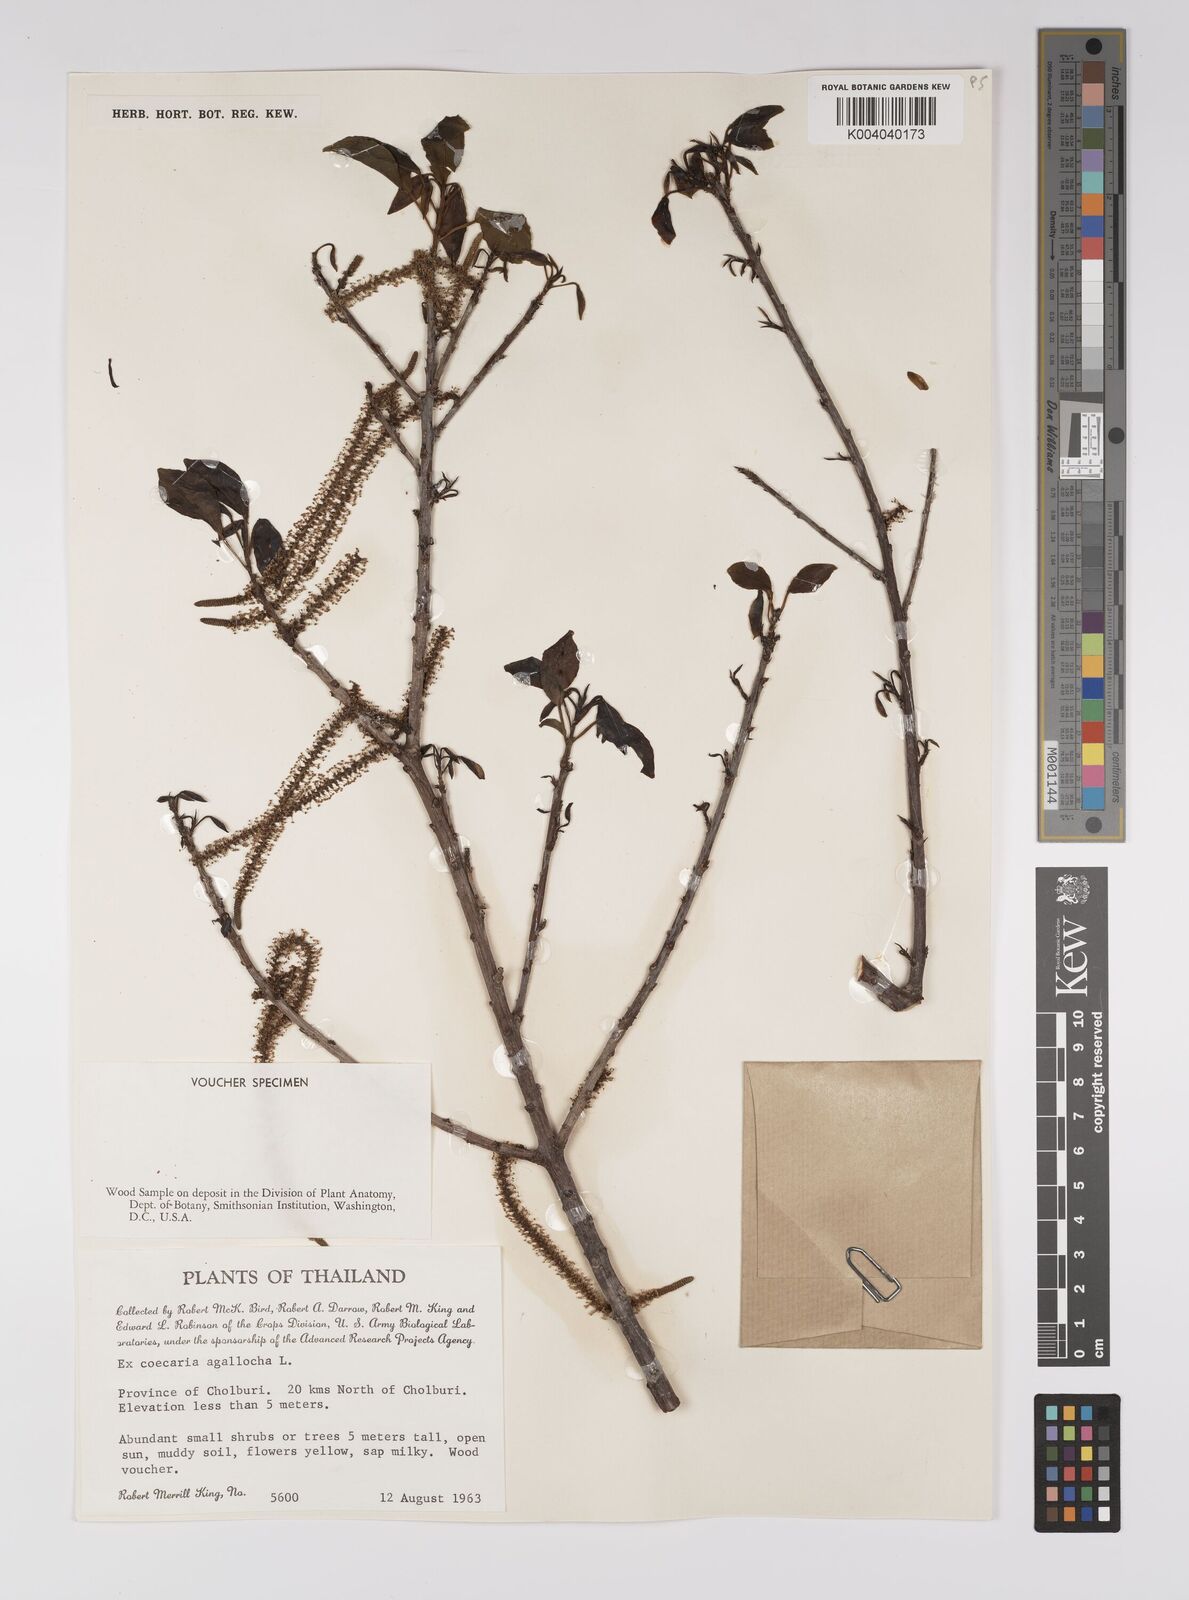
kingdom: Plantae
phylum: Tracheophyta
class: Magnoliopsida
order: Malpighiales
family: Euphorbiaceae
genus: Excoecaria
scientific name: Excoecaria agallocha
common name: River poisontree
